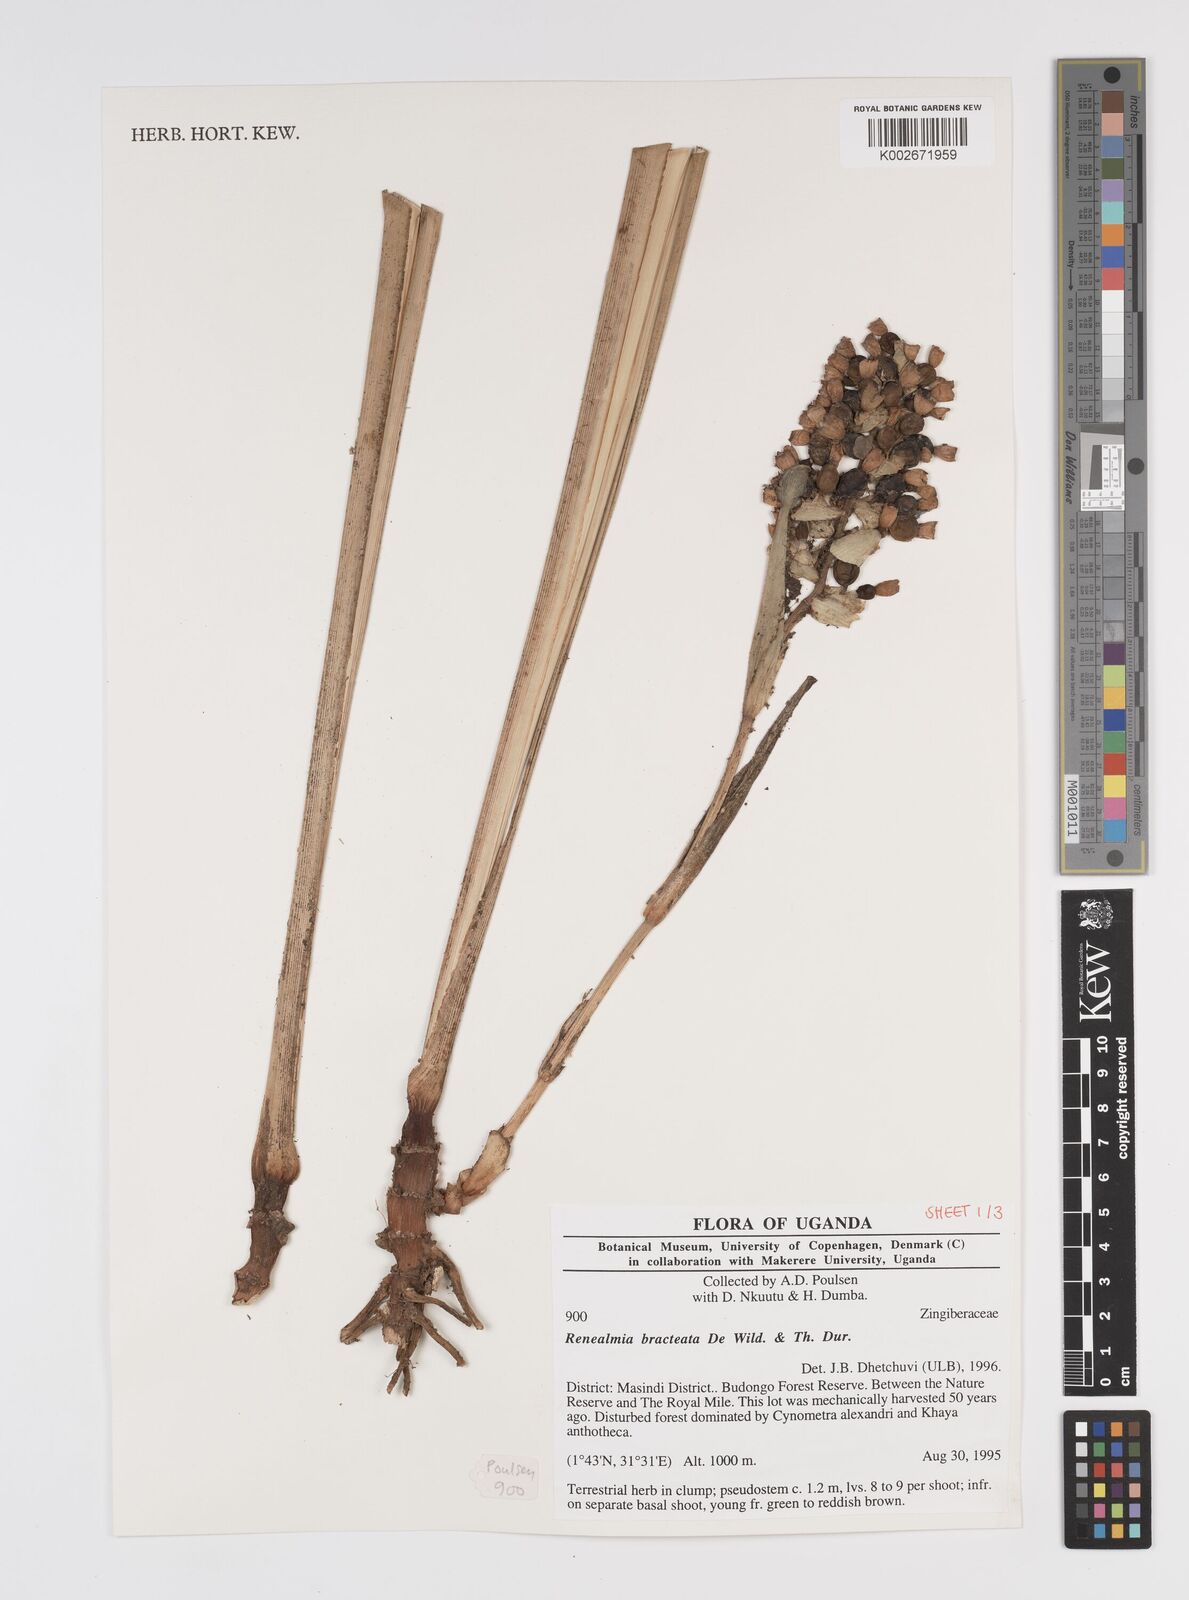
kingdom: Plantae
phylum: Tracheophyta
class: Liliopsida
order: Zingiberales
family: Zingiberaceae
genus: Renealmia
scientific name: Renealmia bracteata
